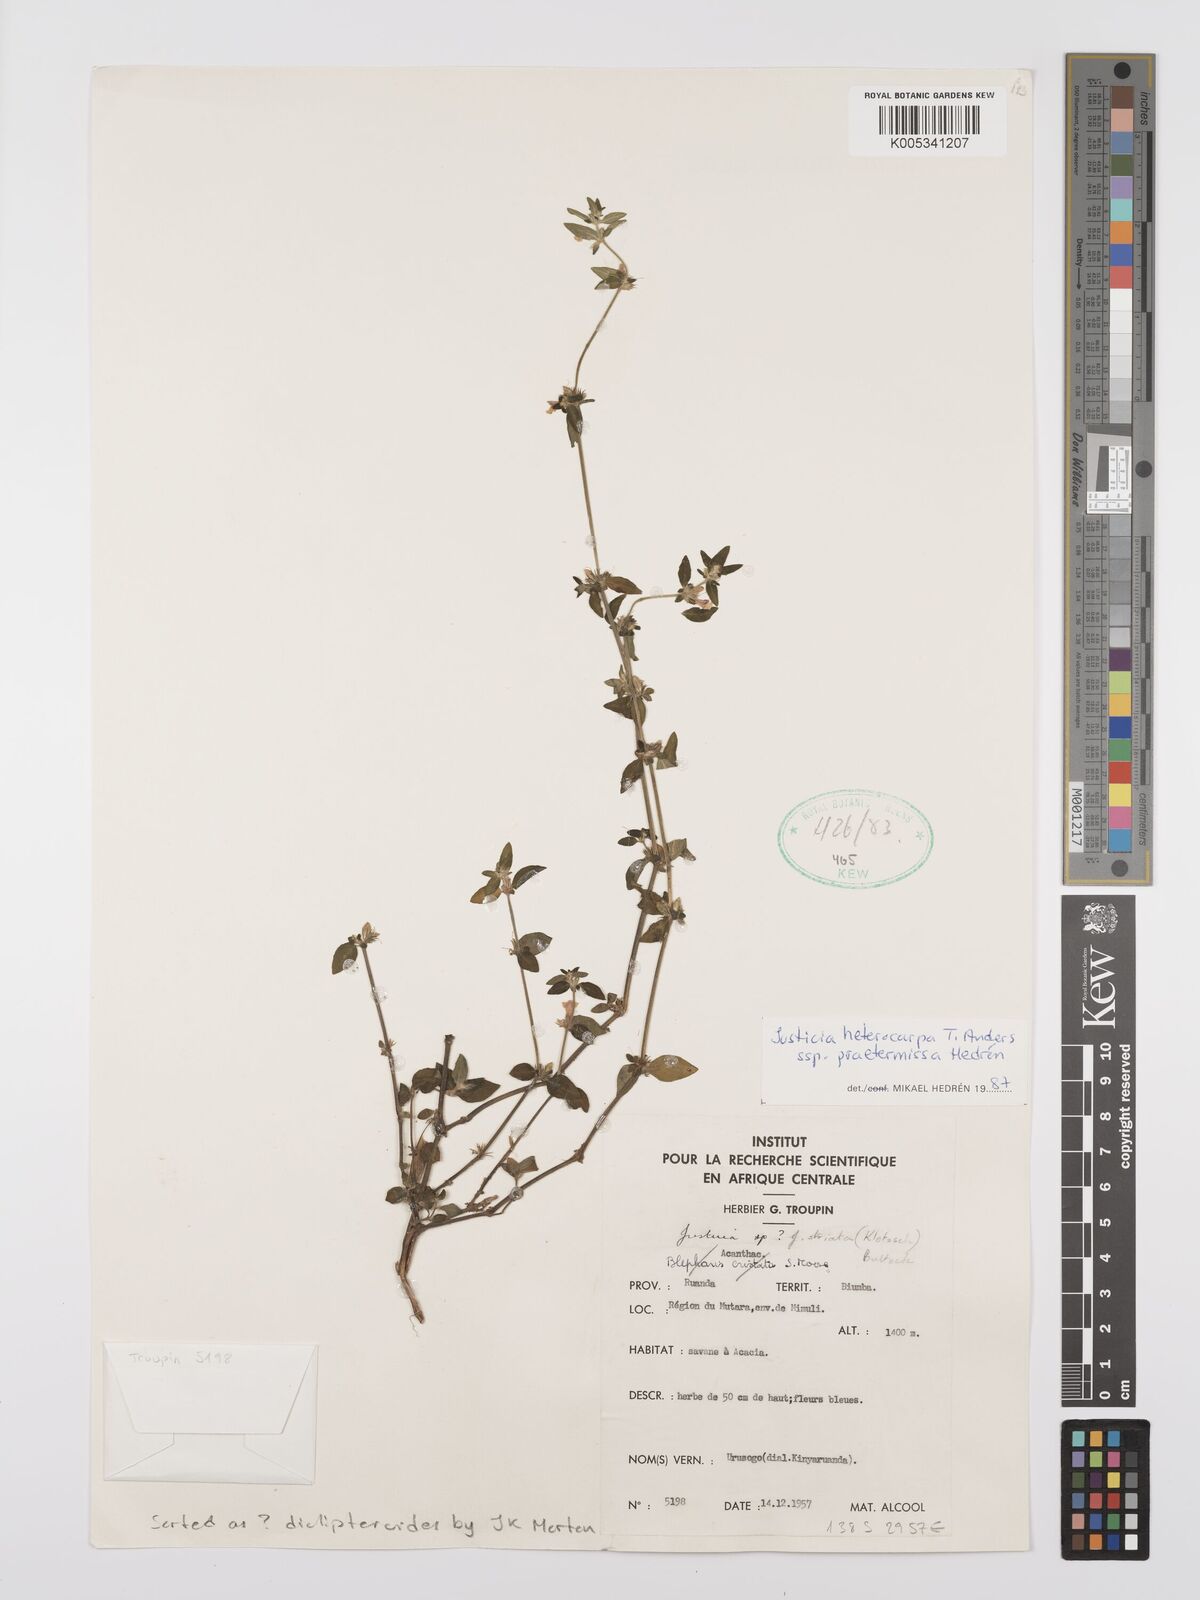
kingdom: Plantae
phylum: Tracheophyta
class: Magnoliopsida
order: Lamiales
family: Acanthaceae
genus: Justicia
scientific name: Justicia heterocarpa
